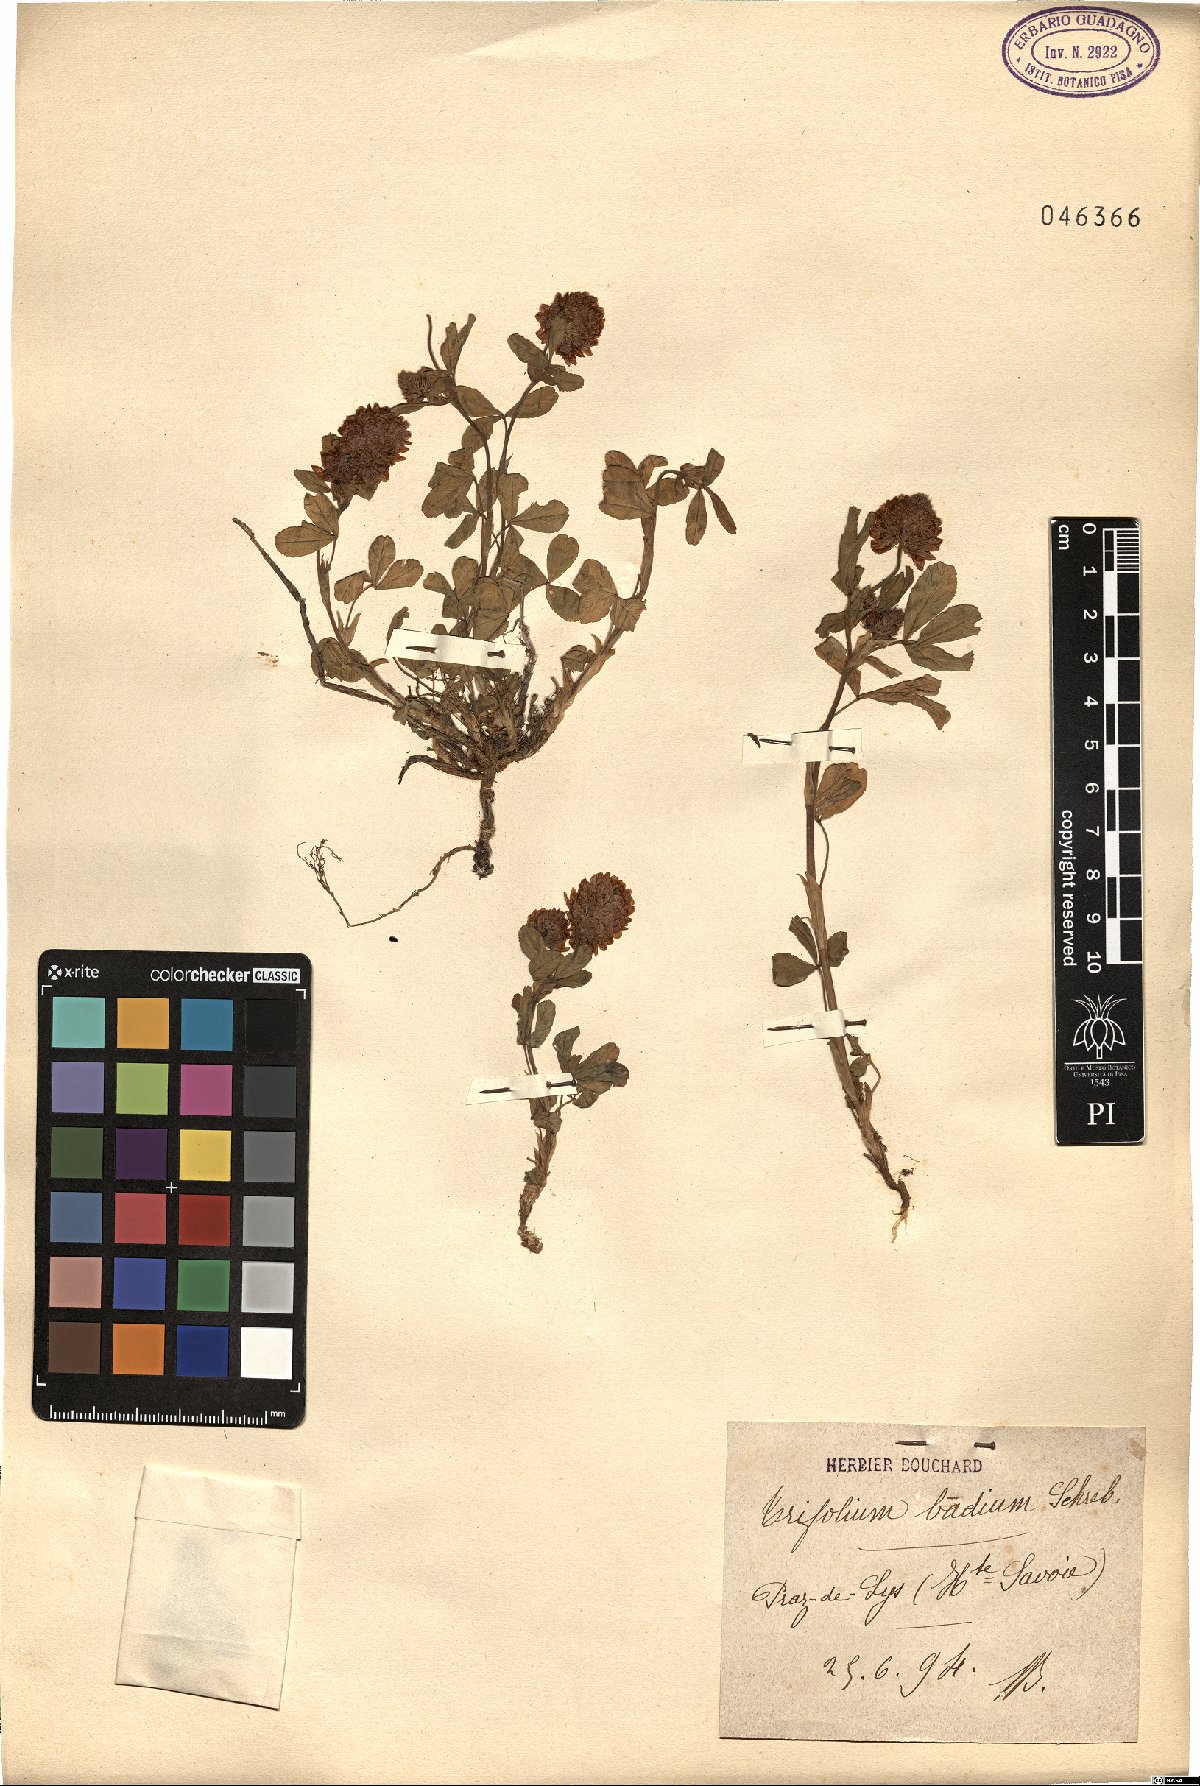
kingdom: Plantae
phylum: Tracheophyta
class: Magnoliopsida
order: Fabales
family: Fabaceae
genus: Trifolium
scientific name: Trifolium badium
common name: Brown clover
